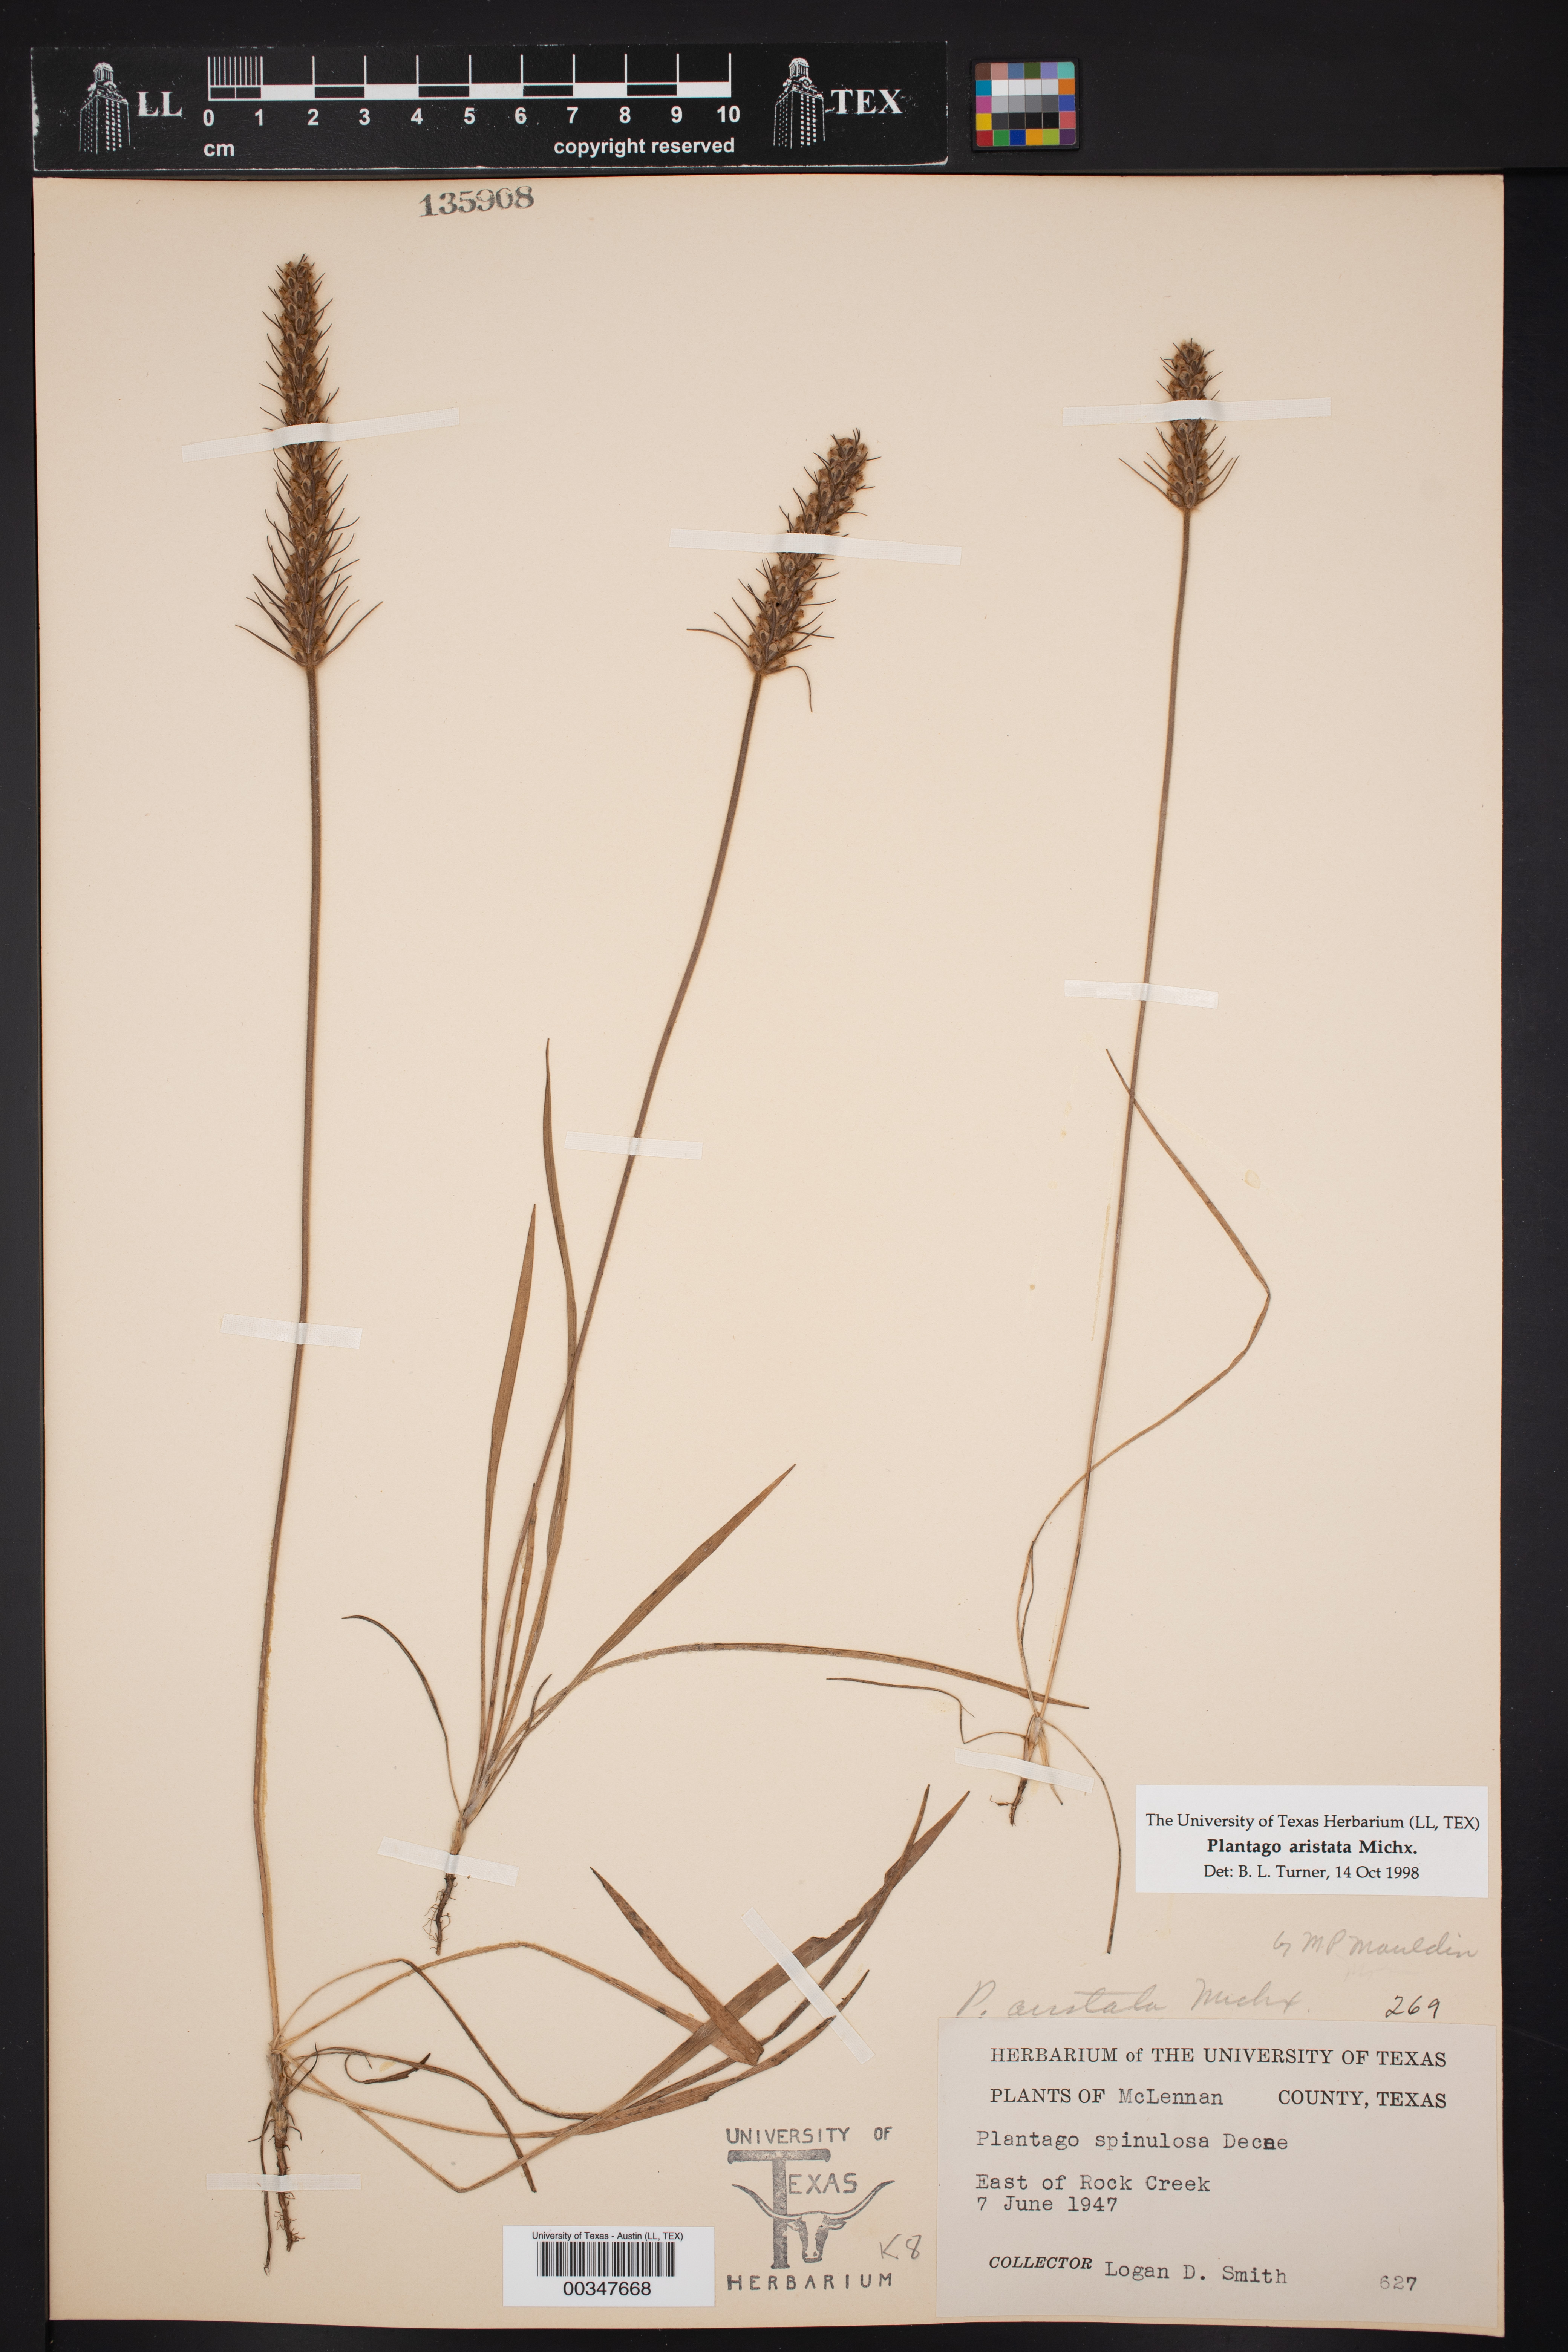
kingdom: Plantae
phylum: Tracheophyta
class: Magnoliopsida
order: Lamiales
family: Plantaginaceae
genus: Plantago
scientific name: Plantago aristata
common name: Bracted plantain
